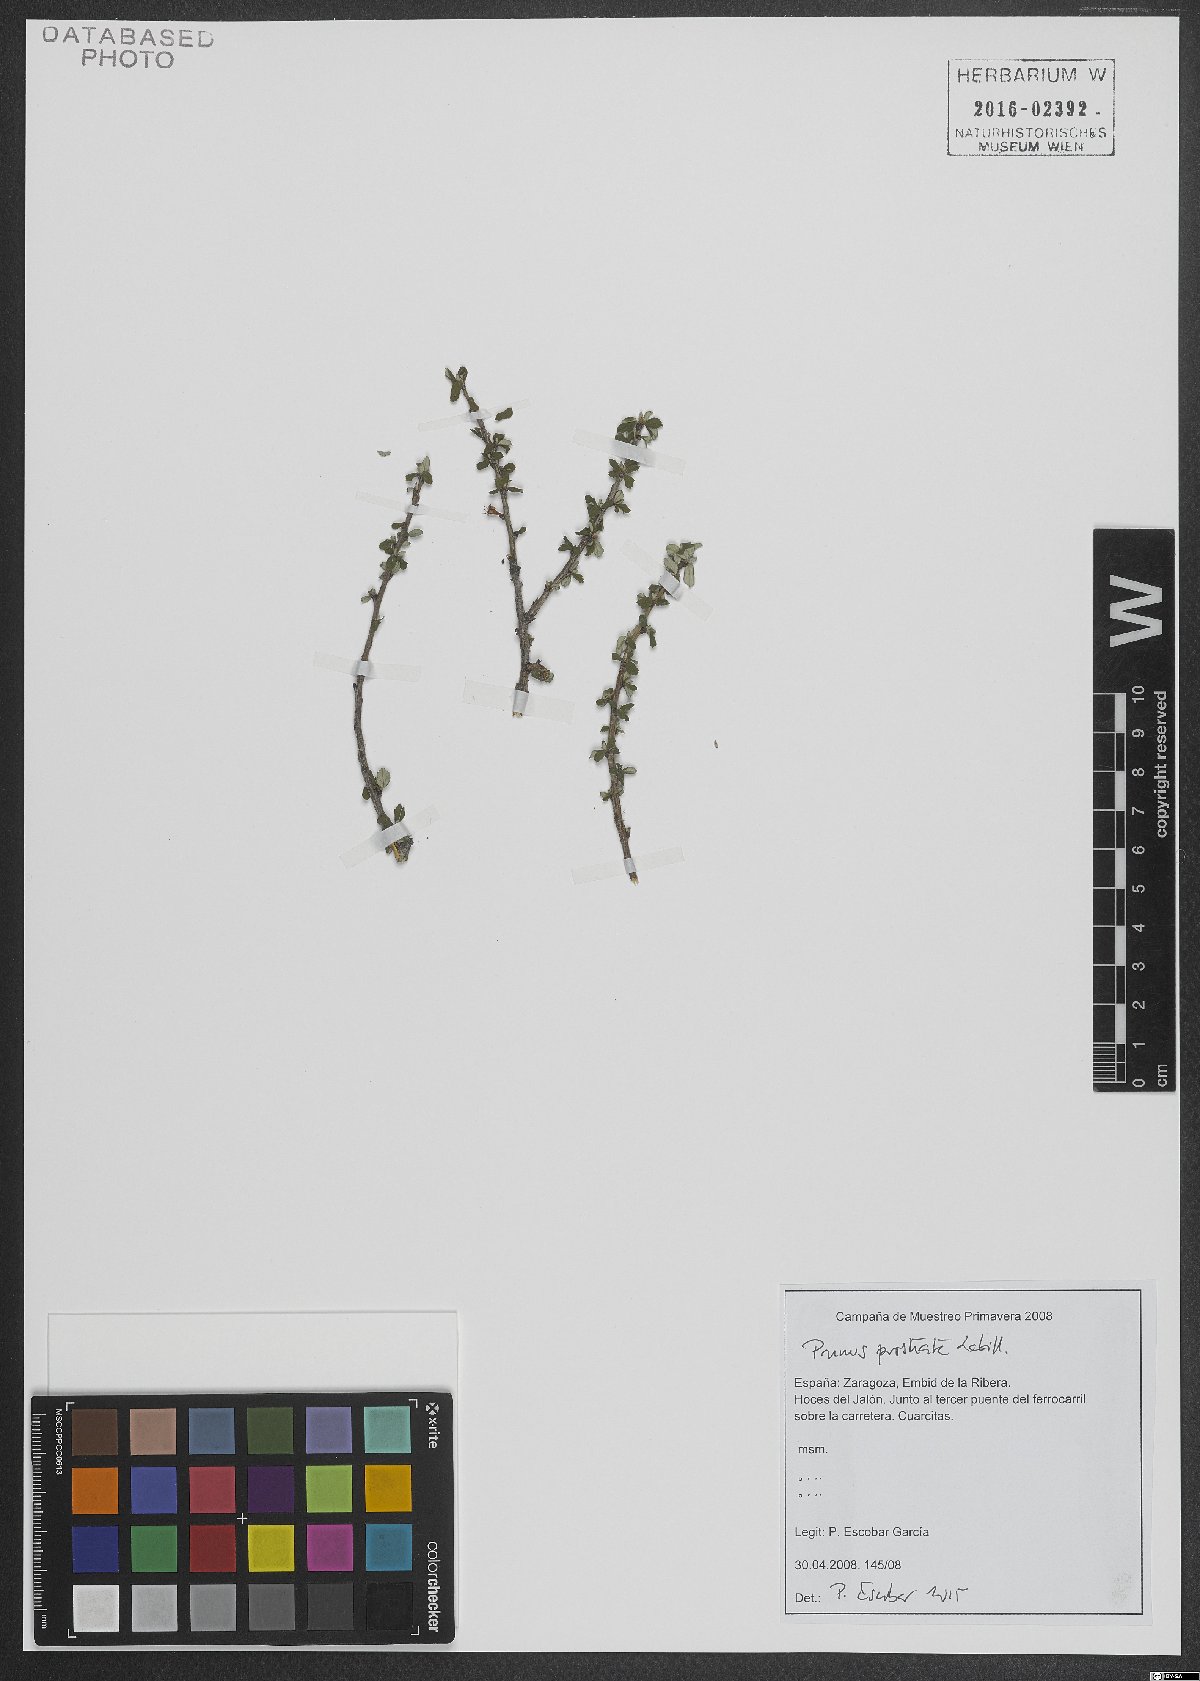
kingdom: Plantae
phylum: Tracheophyta
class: Magnoliopsida
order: Rosales
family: Rosaceae
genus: Prunus
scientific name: Prunus prostrata
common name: Mountain cherry
